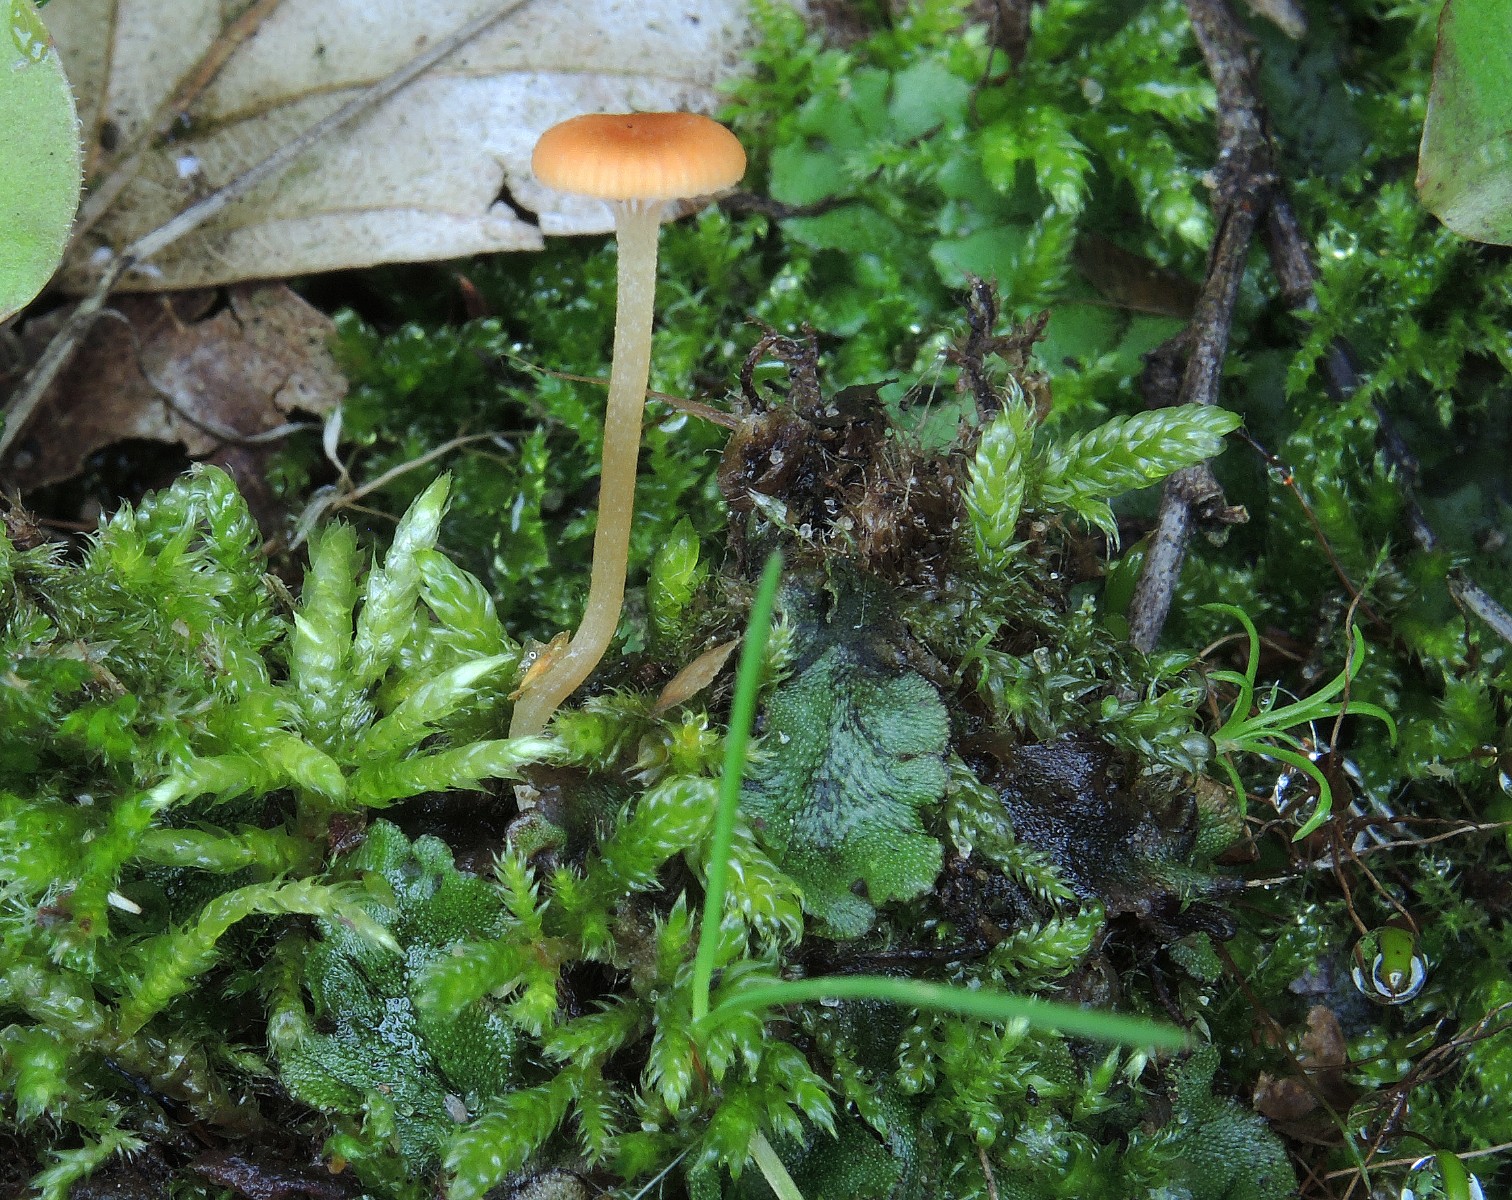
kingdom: Fungi
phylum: Basidiomycota
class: Agaricomycetes
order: Hymenochaetales
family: Rickenellaceae
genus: Loreleia
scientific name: Loreleia marchantiae
